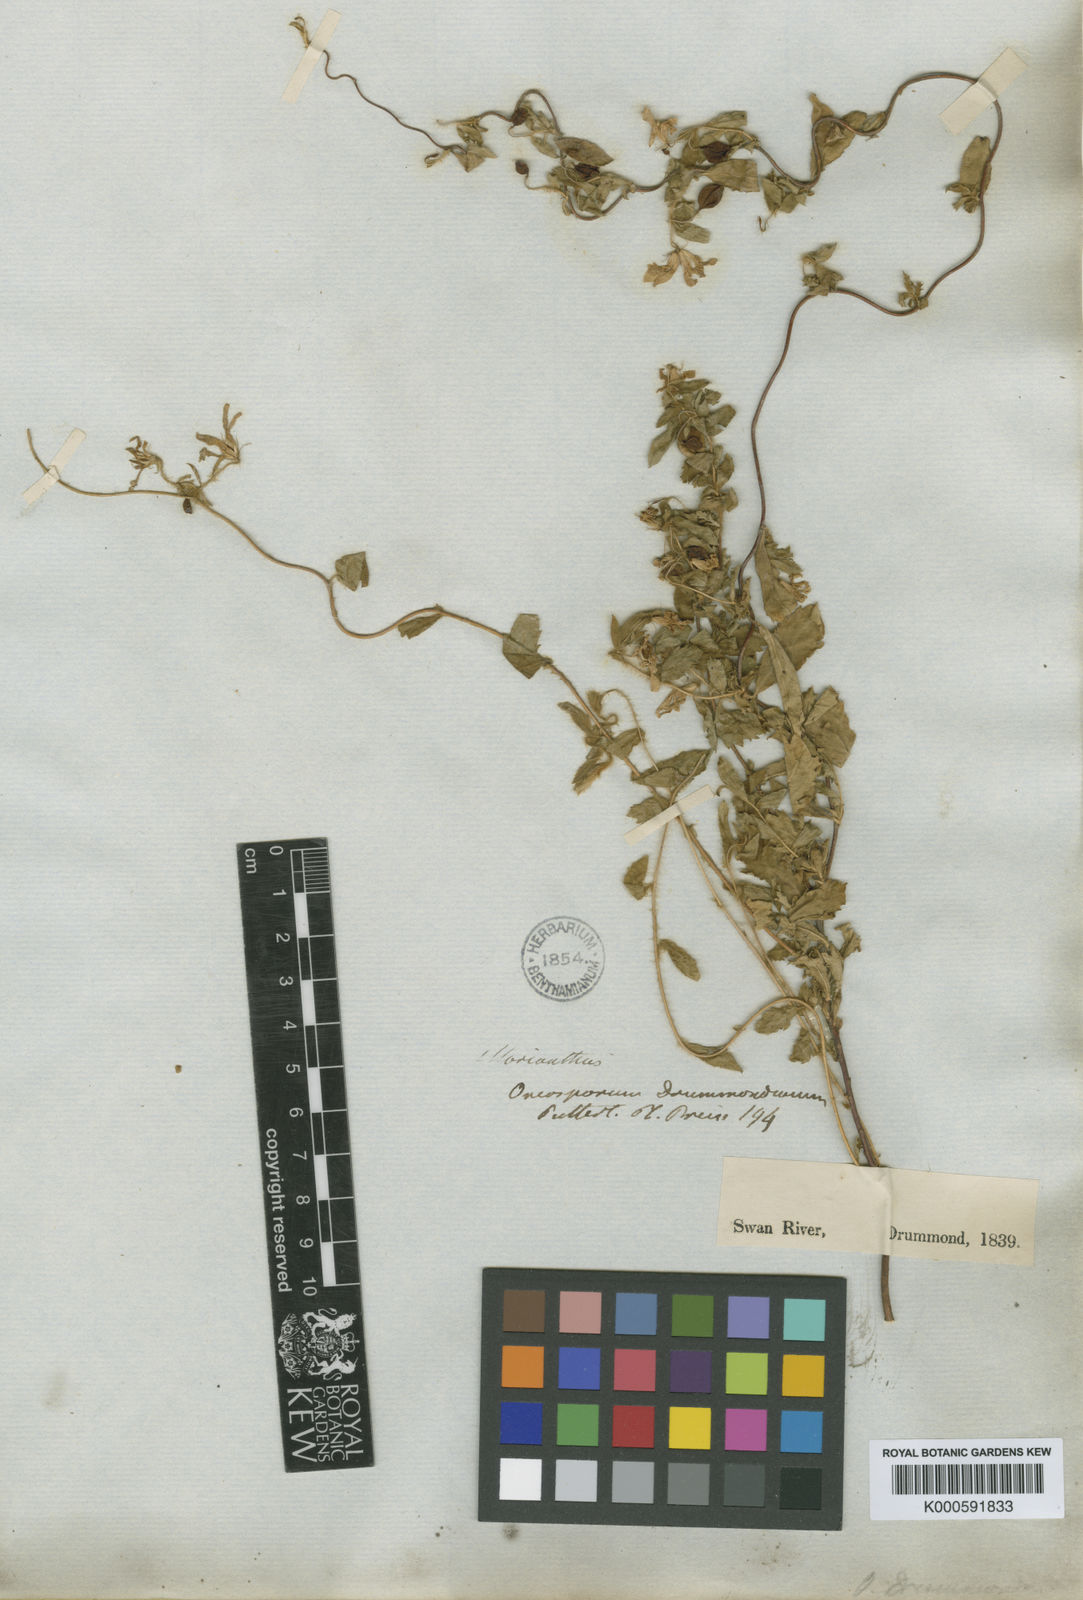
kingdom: Plantae
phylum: Tracheophyta
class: Magnoliopsida
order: Apiales
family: Pittosporaceae
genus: Marianthus
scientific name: Marianthus drummondianus
